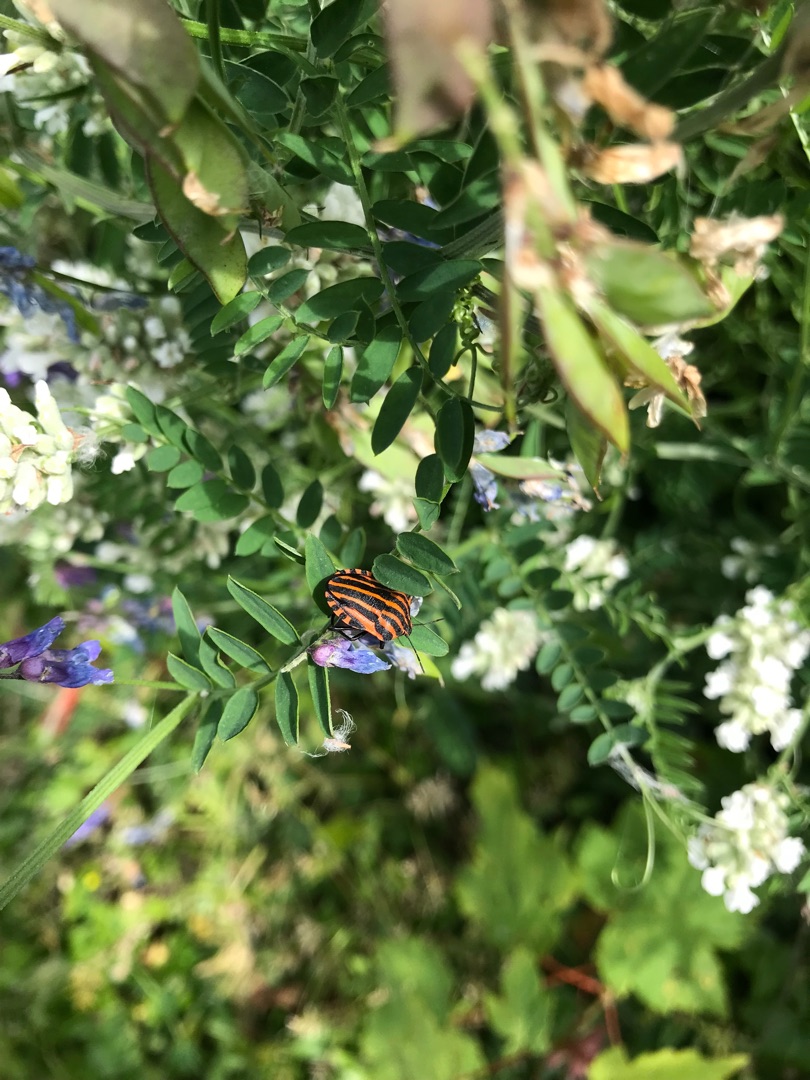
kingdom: Animalia
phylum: Arthropoda
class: Insecta
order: Hemiptera
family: Pentatomidae
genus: Graphosoma
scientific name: Graphosoma italicum
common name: Stribetæge
